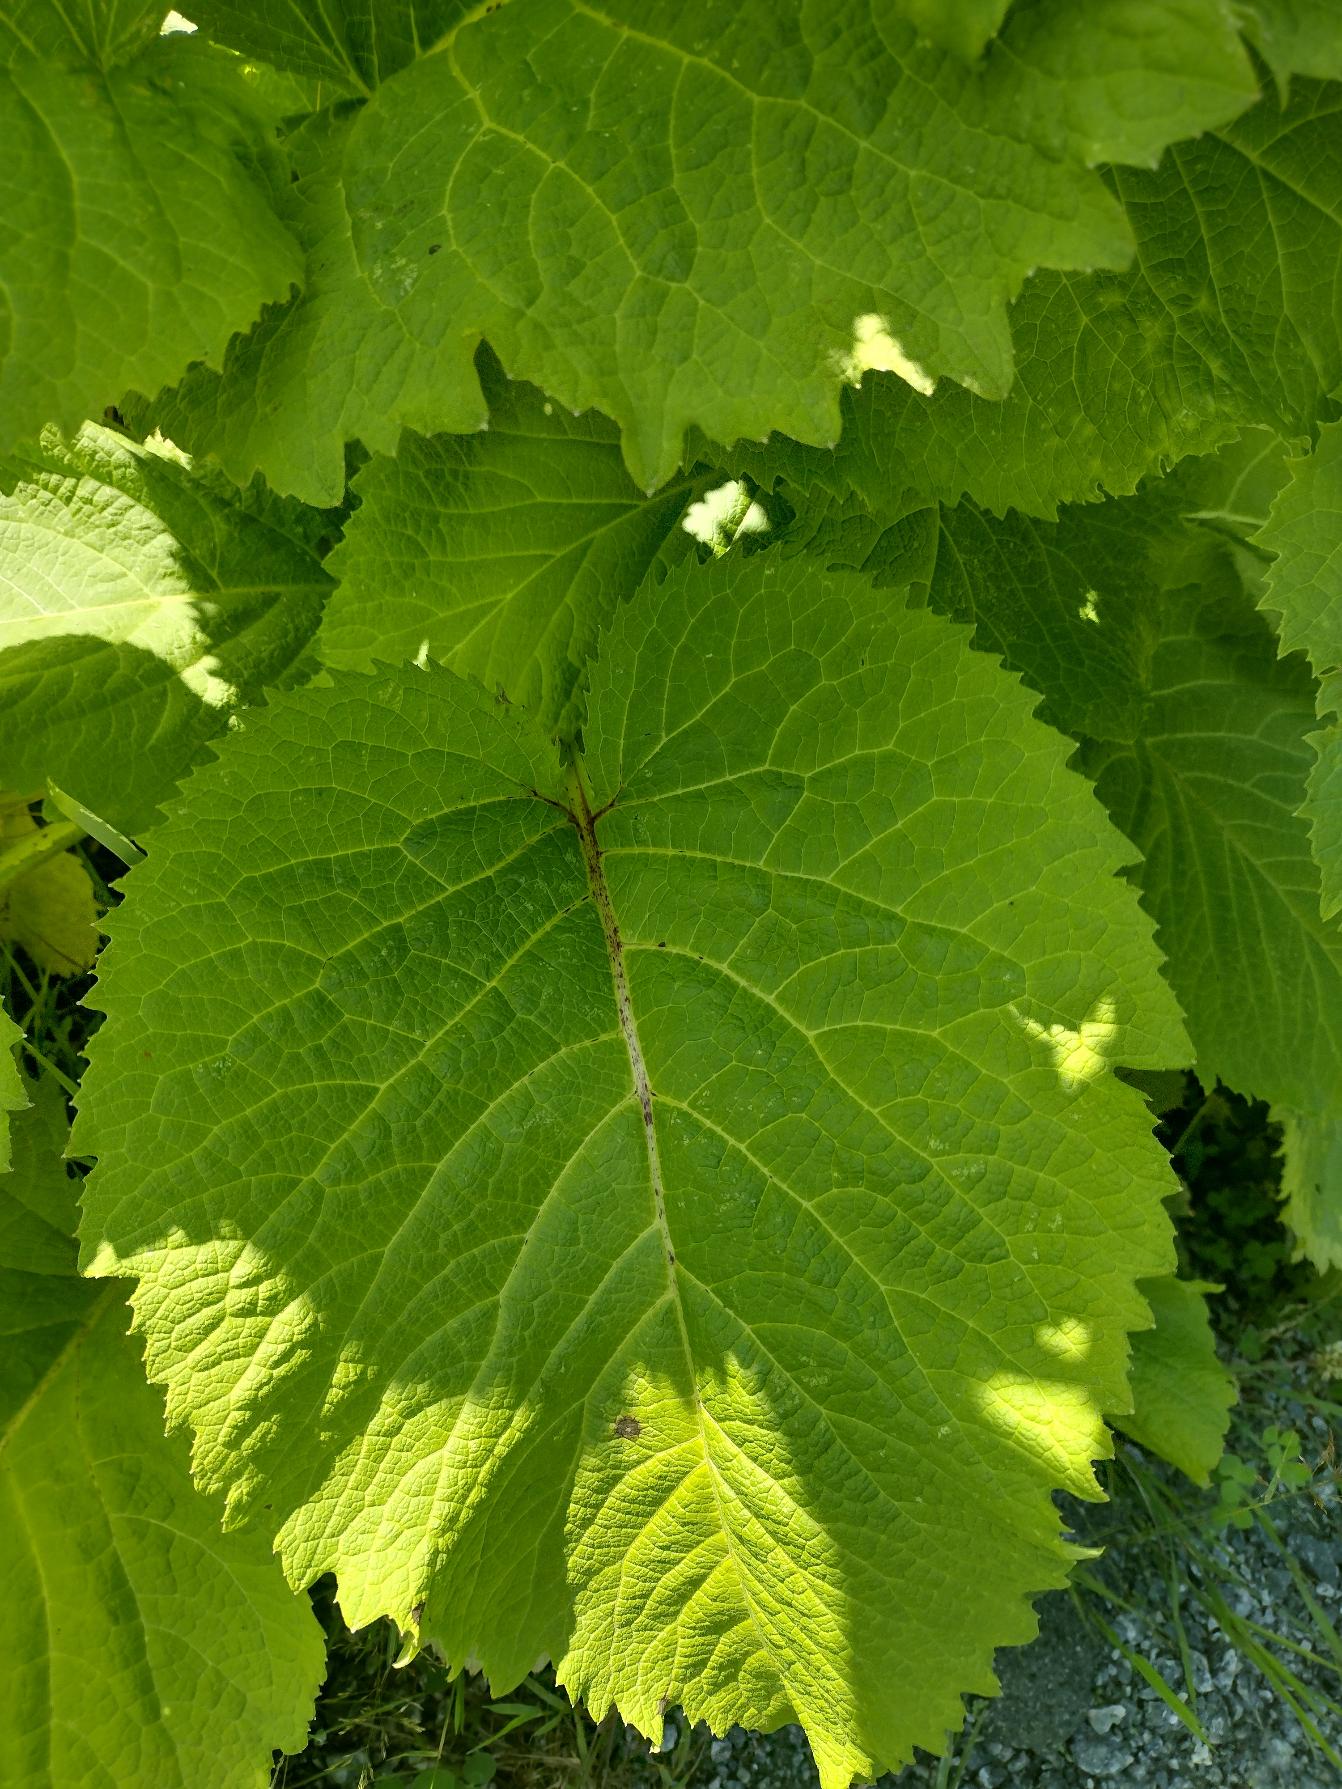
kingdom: Plantae
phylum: Tracheophyta
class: Magnoliopsida
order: Asterales
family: Asteraceae
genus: Telekia
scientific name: Telekia speciosa
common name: Tusindstråle
